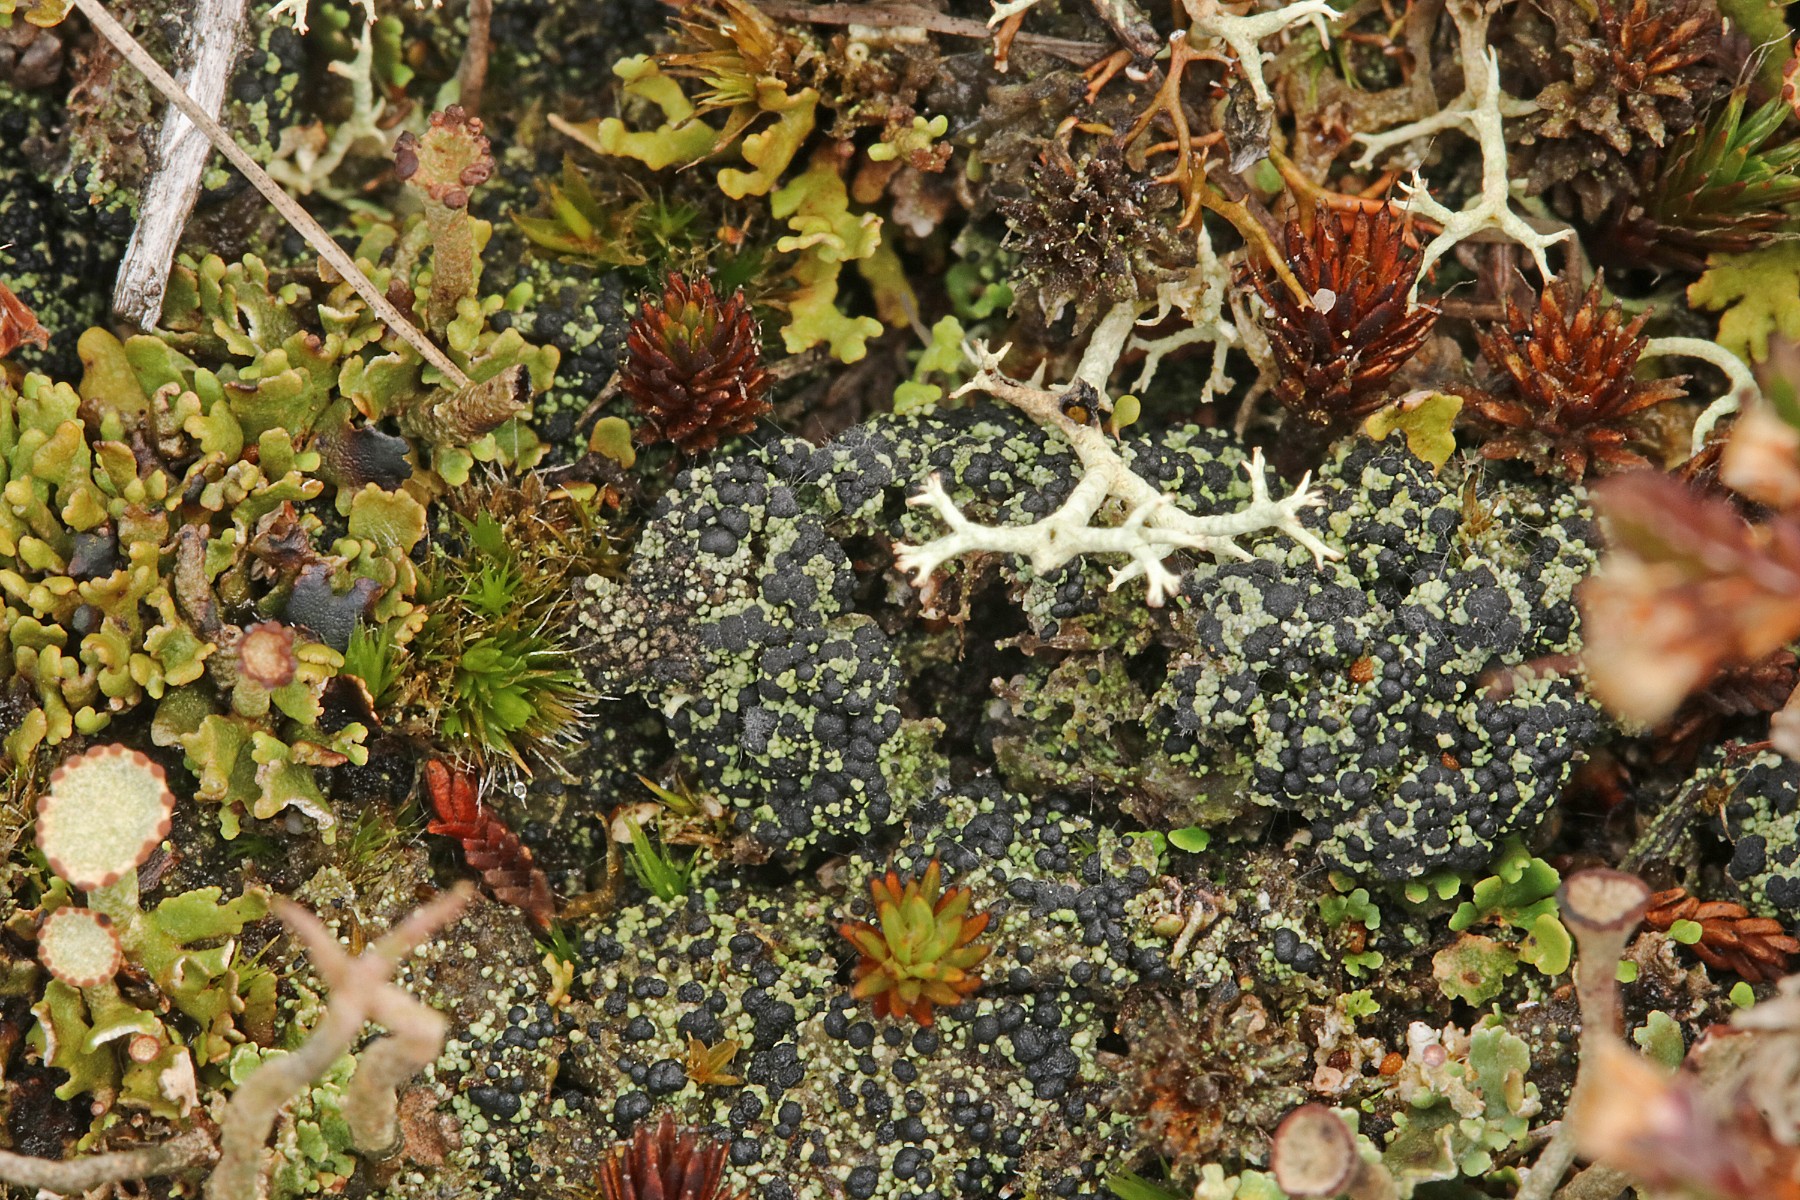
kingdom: Fungi
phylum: Ascomycota
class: Lecanoromycetes
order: Lecanorales
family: Byssolomataceae
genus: Micarea
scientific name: Micarea lignaria
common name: tørve-knaplav
